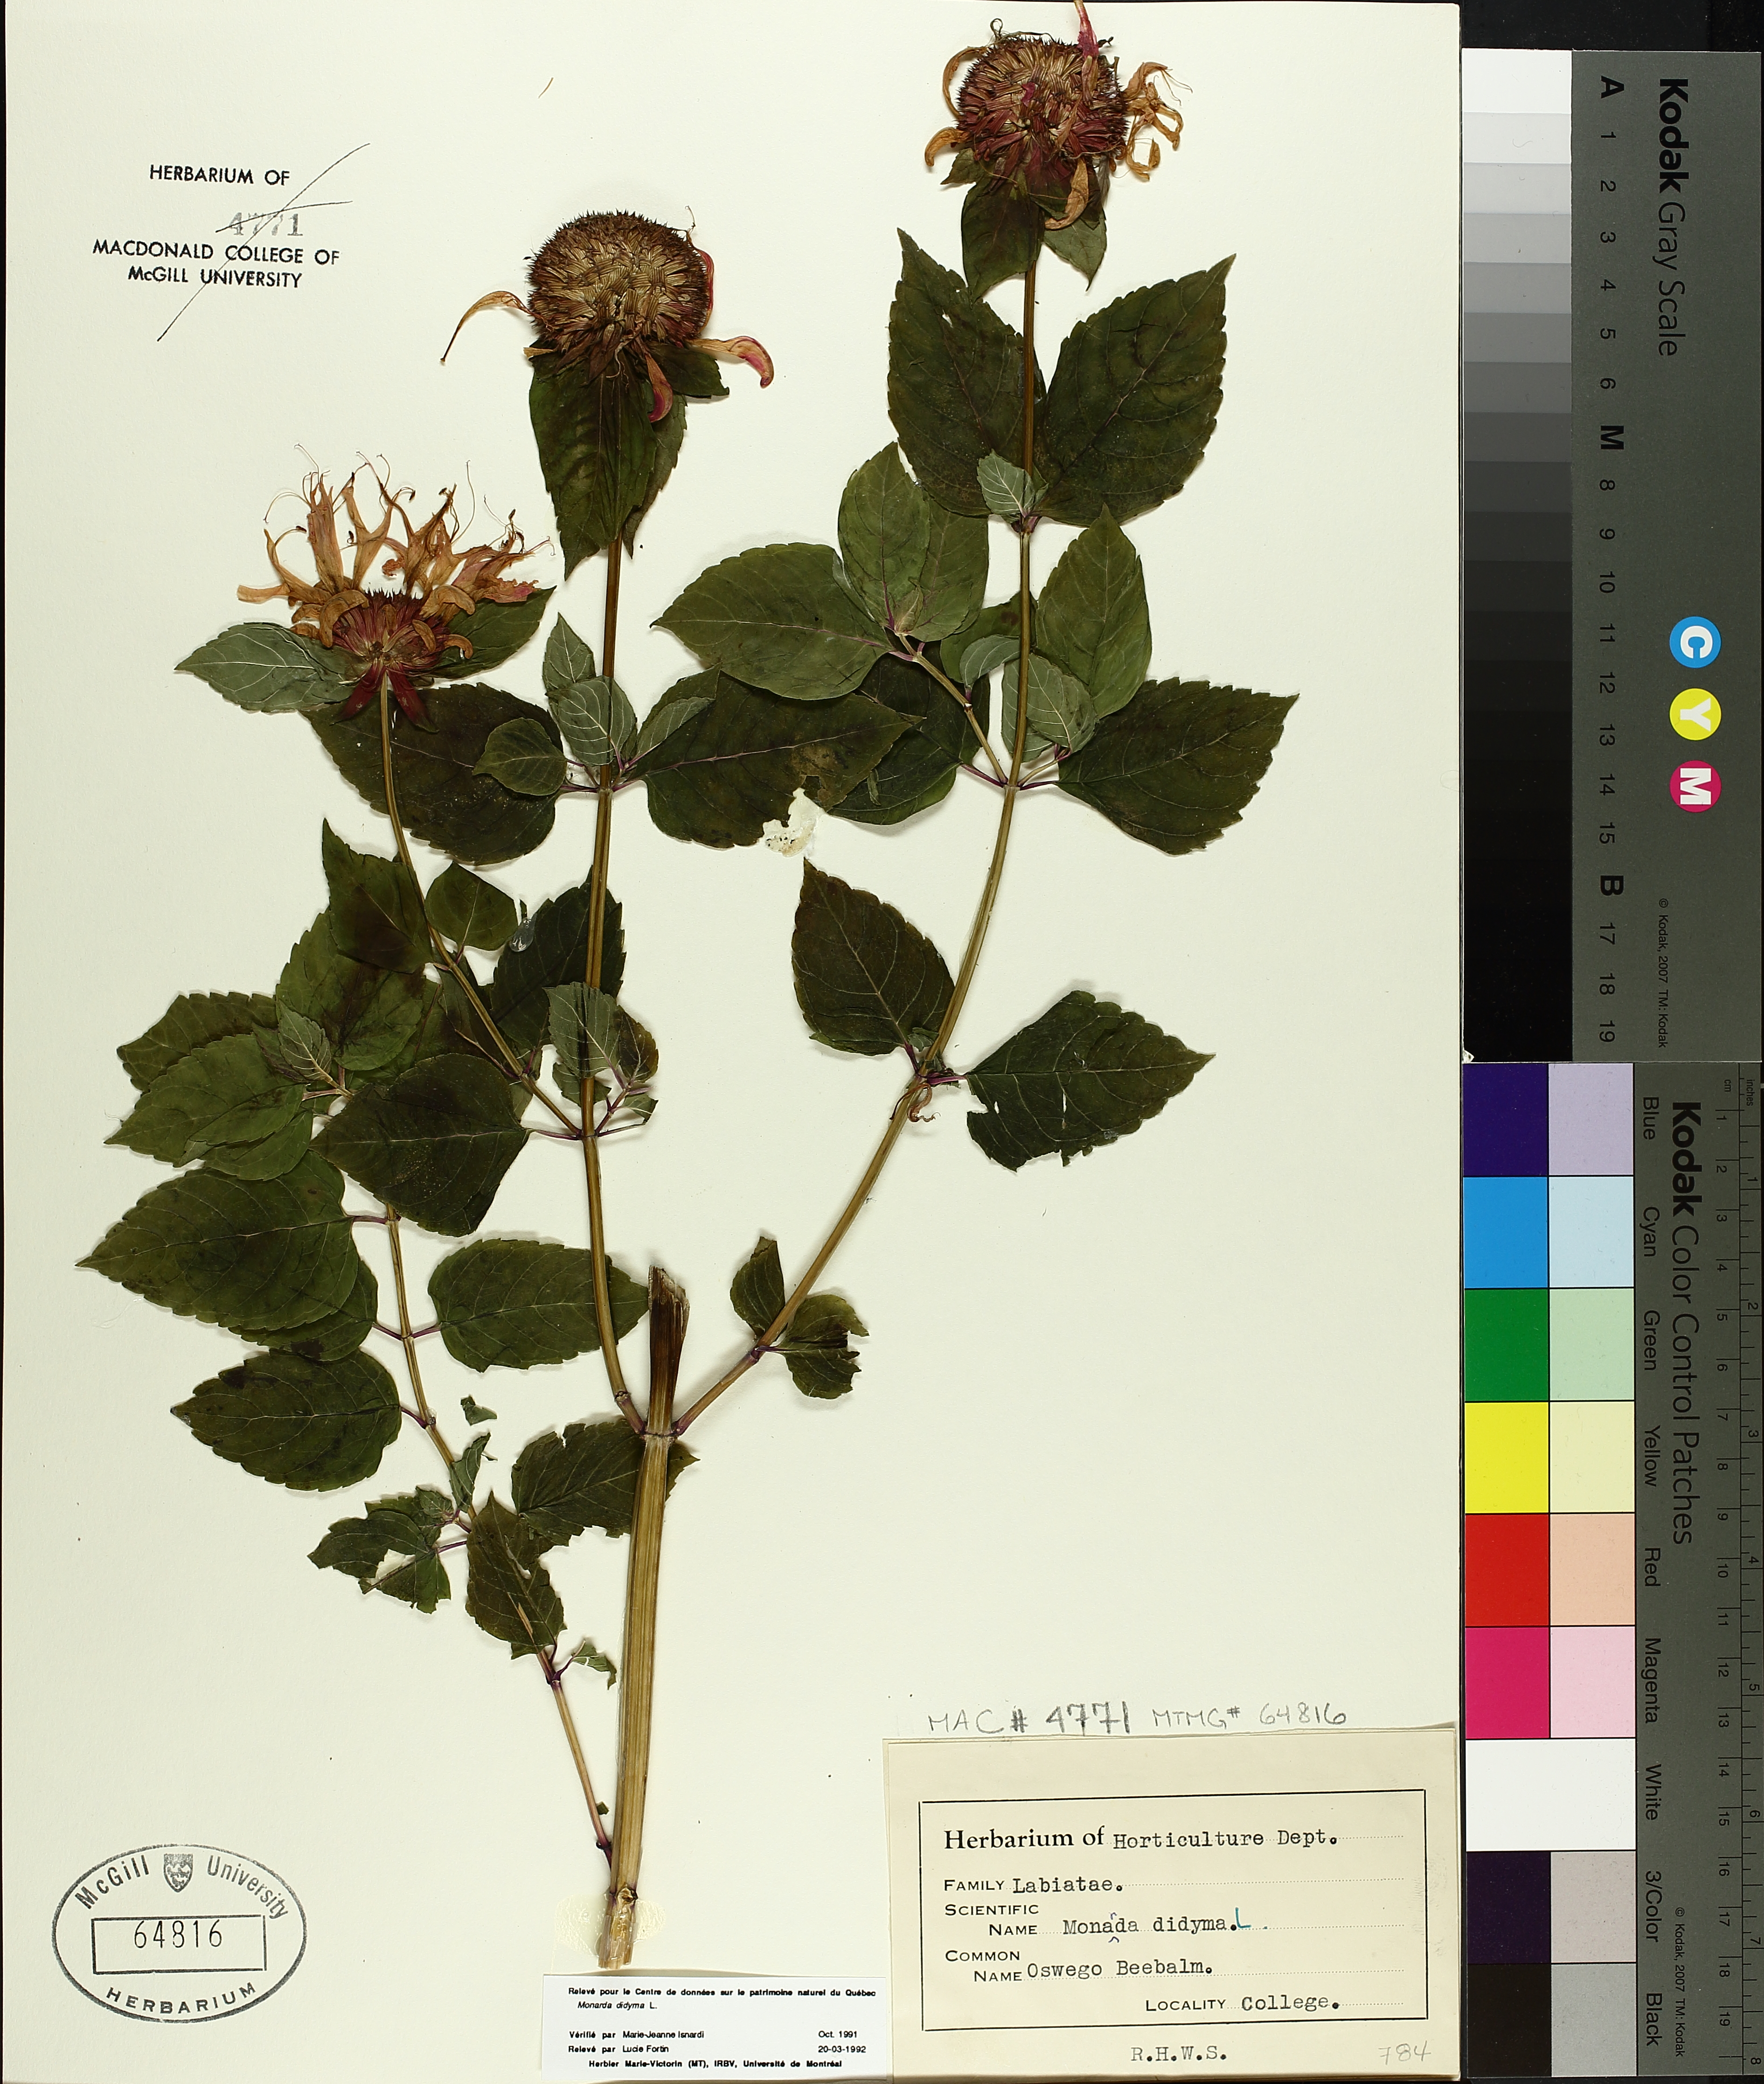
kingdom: Plantae
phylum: Tracheophyta
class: Magnoliopsida
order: Lamiales
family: Lamiaceae
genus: Monarda
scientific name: Monarda didyma
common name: Beebalm
